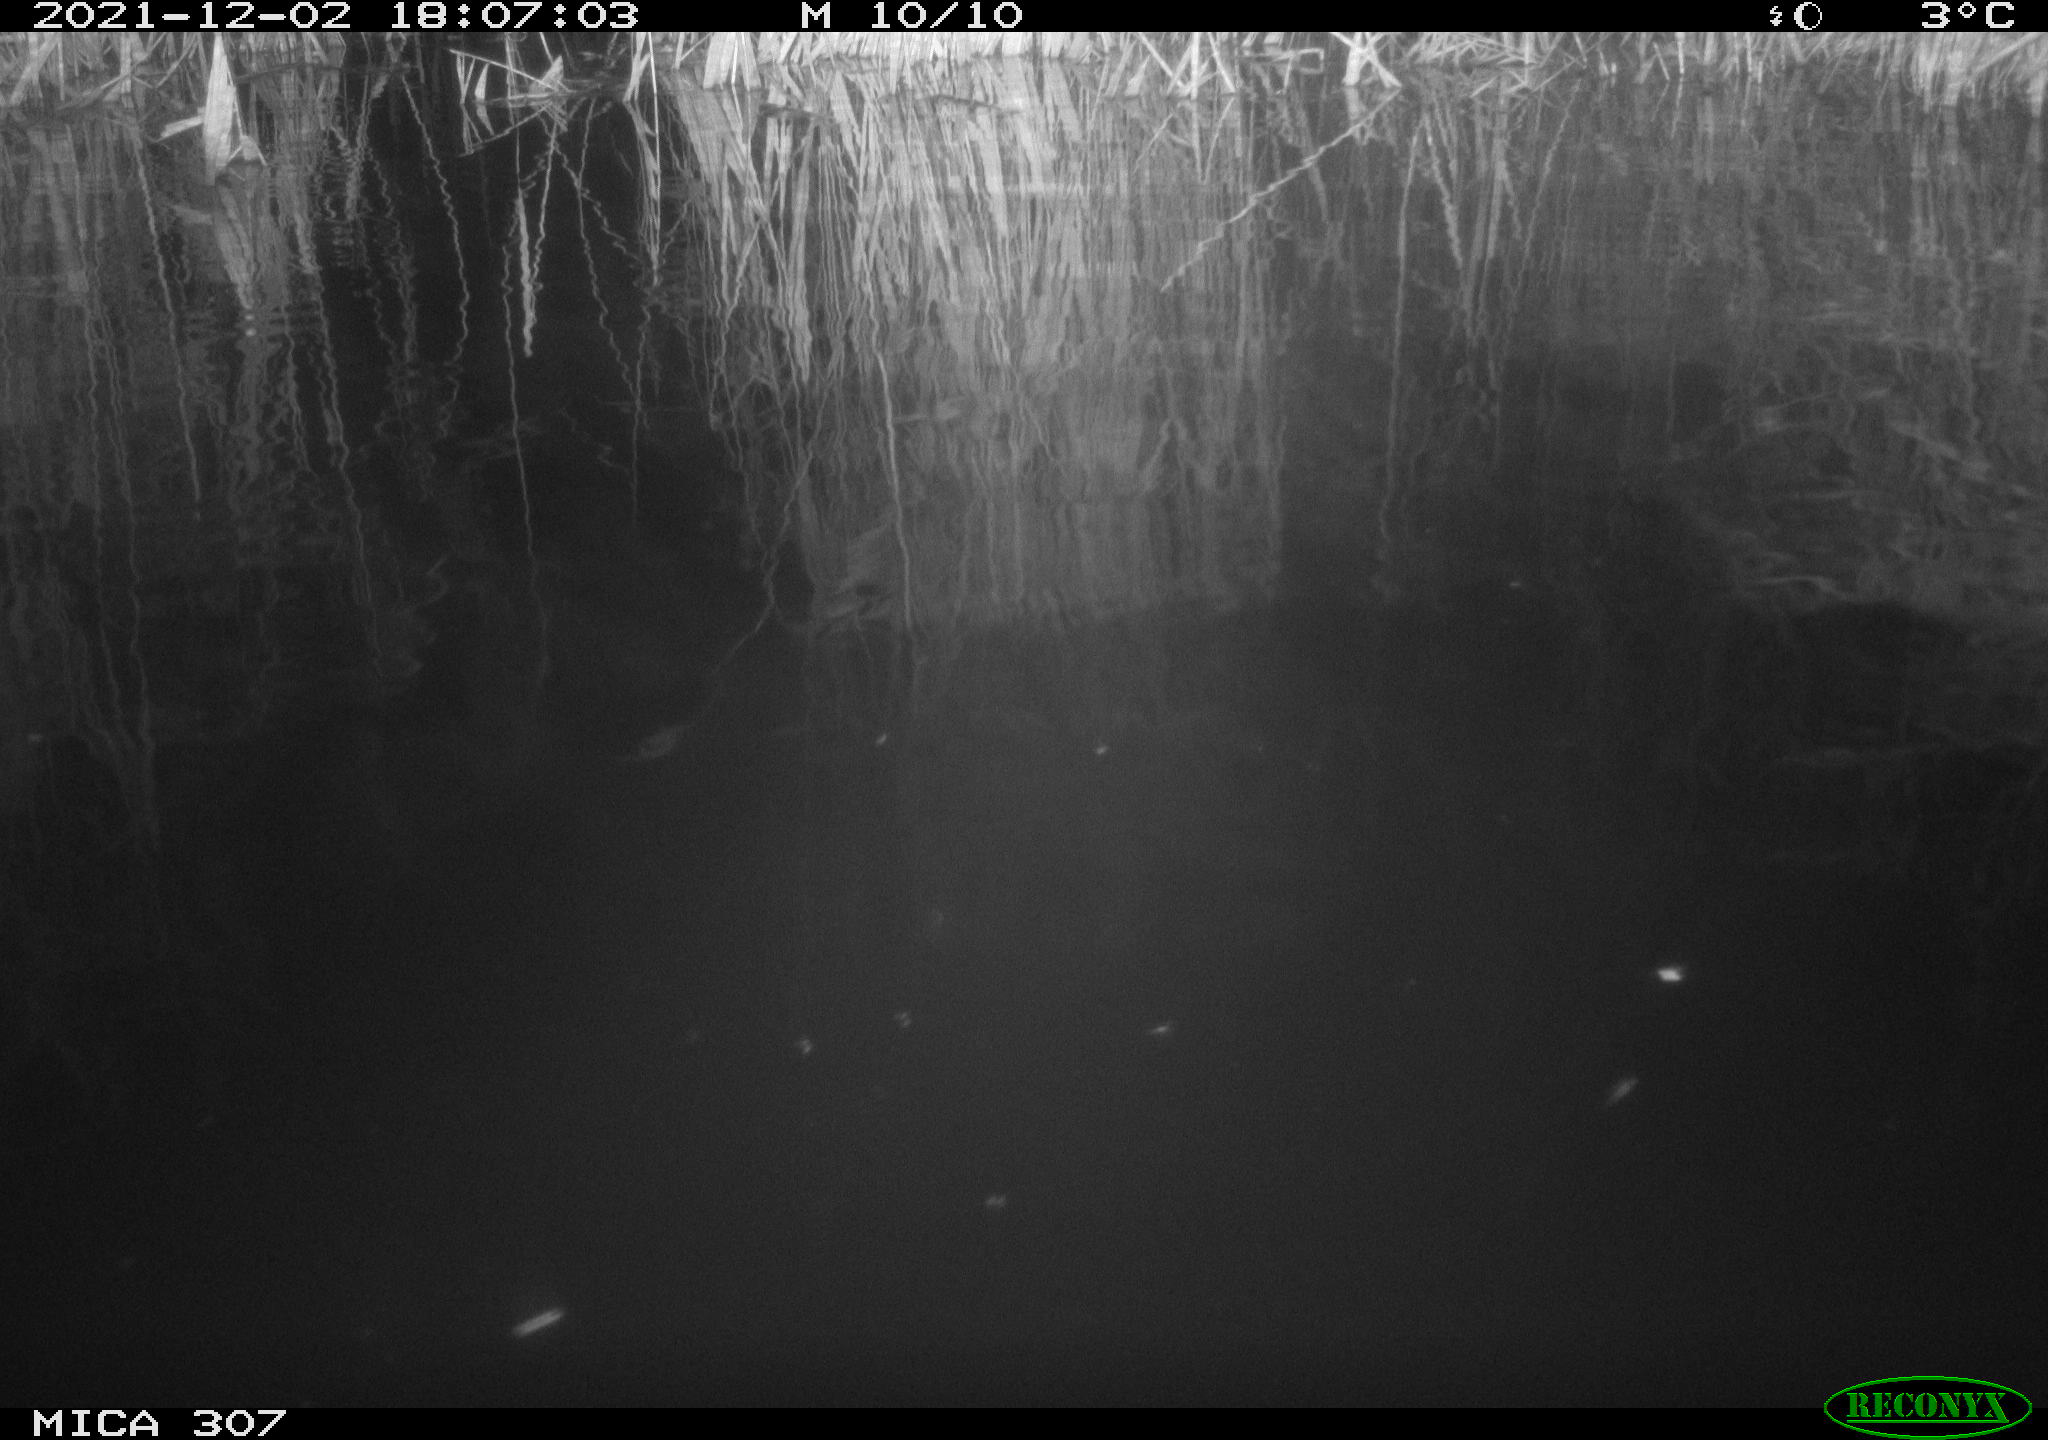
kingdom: Animalia
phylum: Chordata
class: Mammalia
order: Rodentia
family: Cricetidae
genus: Ondatra
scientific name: Ondatra zibethicus
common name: Muskrat
